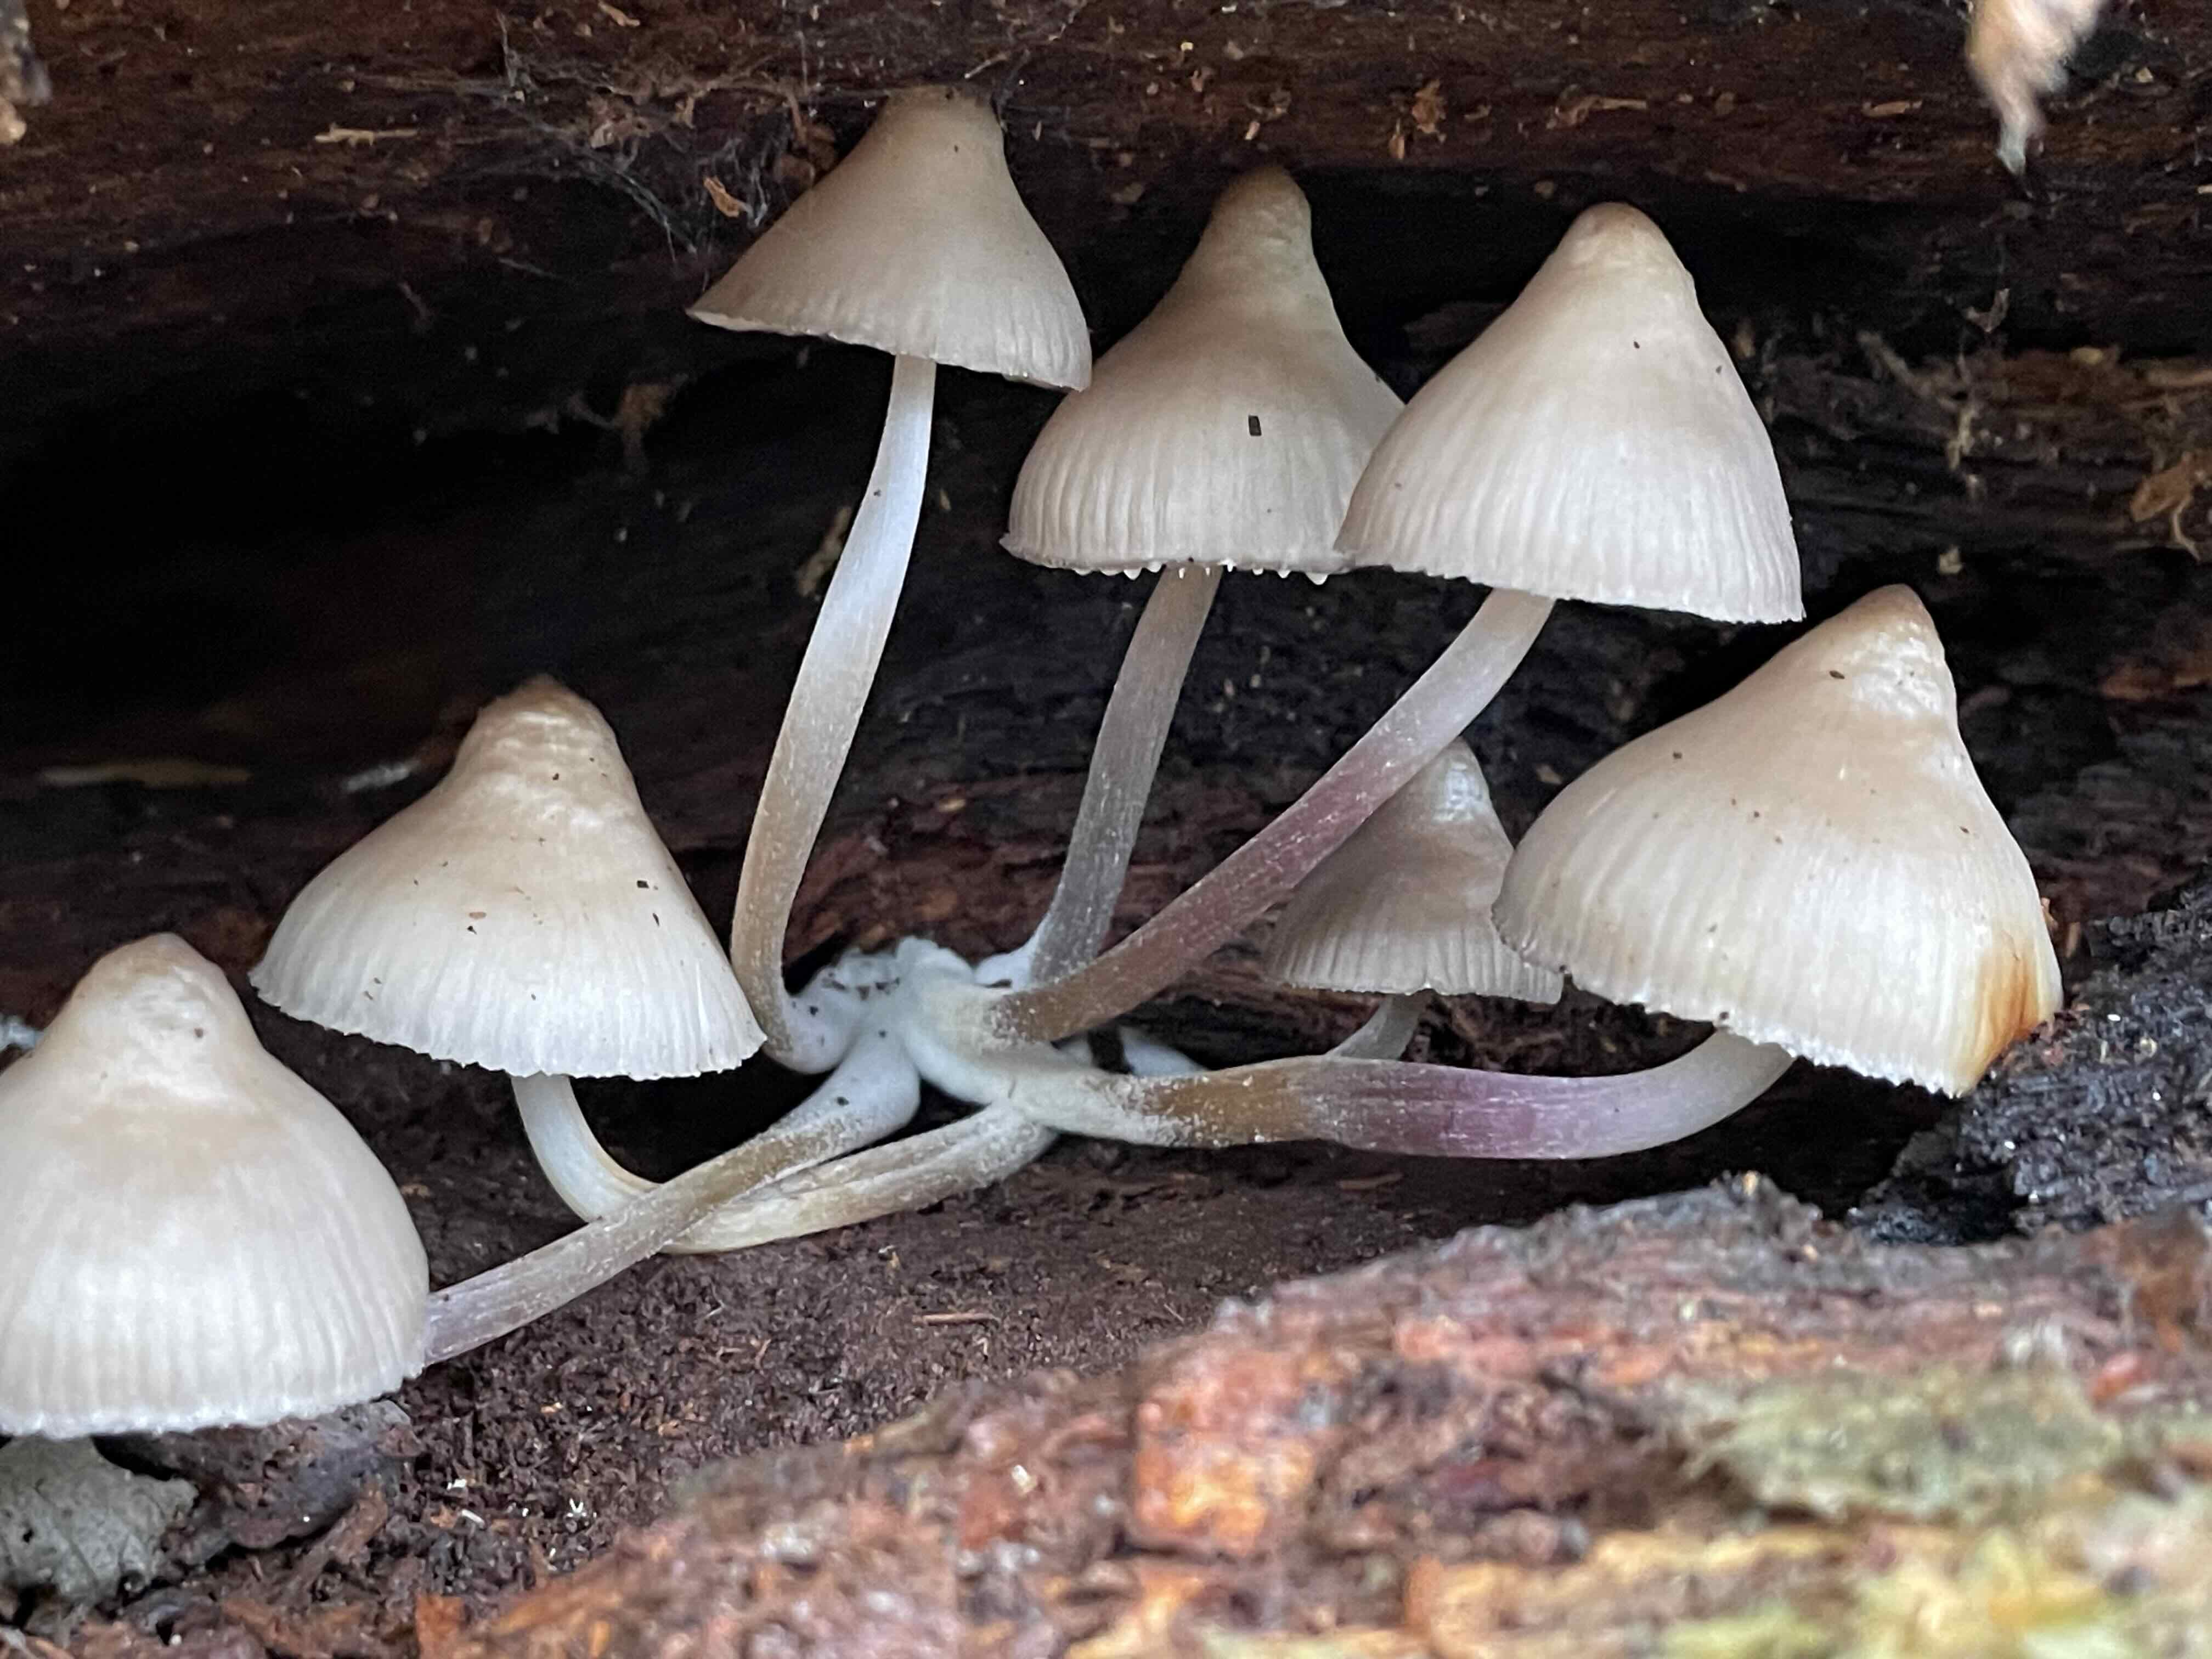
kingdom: Fungi
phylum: Basidiomycota
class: Agaricomycetes
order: Agaricales
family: Mycenaceae
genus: Mycena
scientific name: Mycena galericulata
